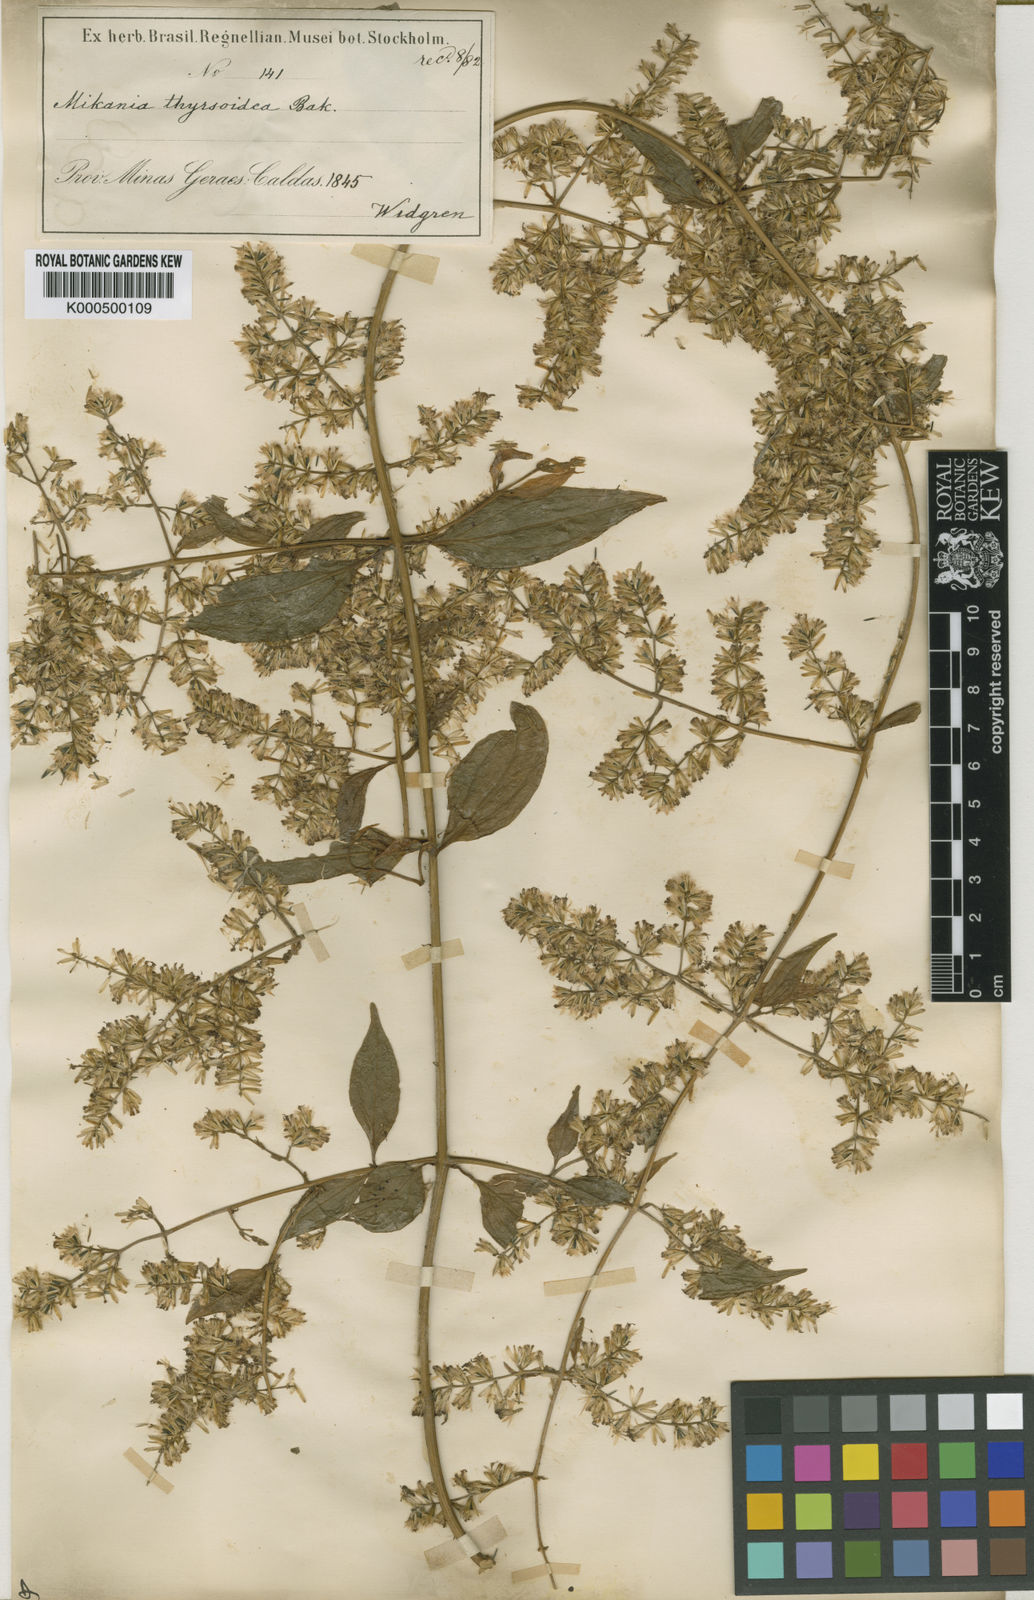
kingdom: Plantae
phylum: Tracheophyta
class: Magnoliopsida
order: Asterales
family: Asteraceae
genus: Mikania
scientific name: Mikania thyrsoidea
